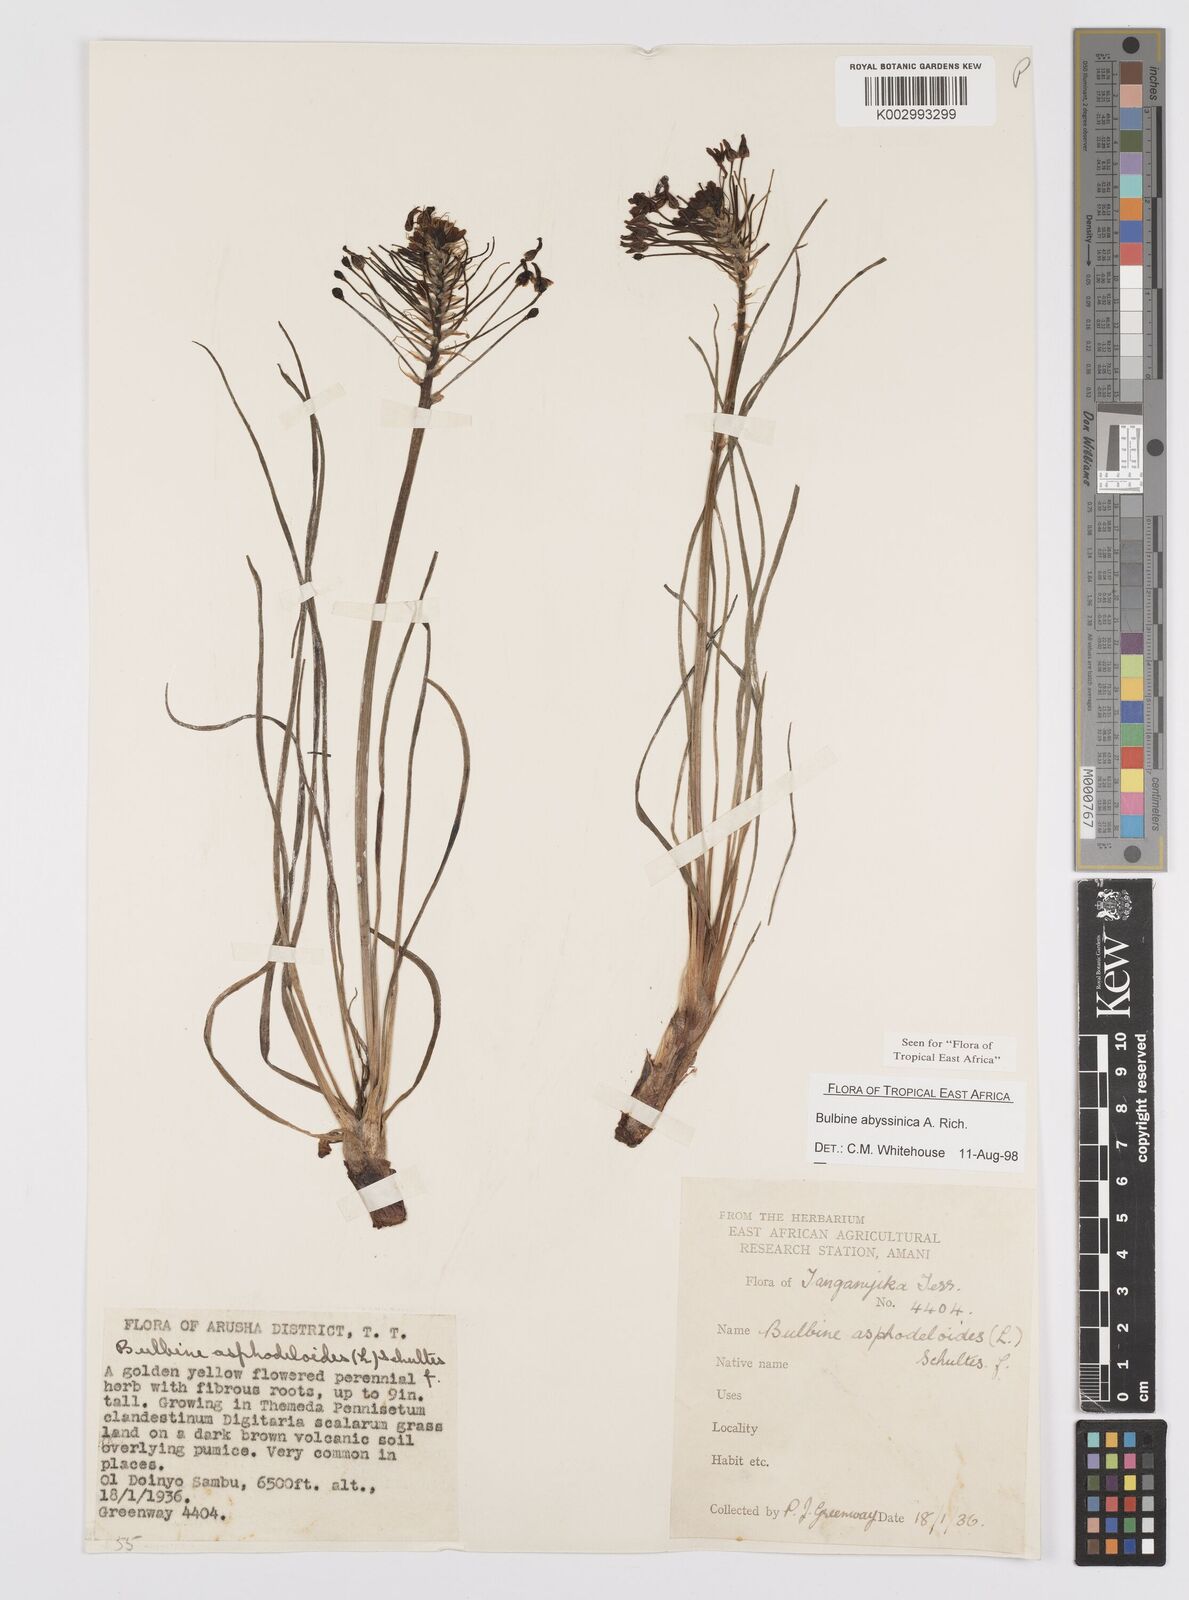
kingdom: Plantae
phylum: Tracheophyta
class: Liliopsida
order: Asparagales
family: Asphodelaceae
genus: Bulbine
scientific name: Bulbine abyssinica
